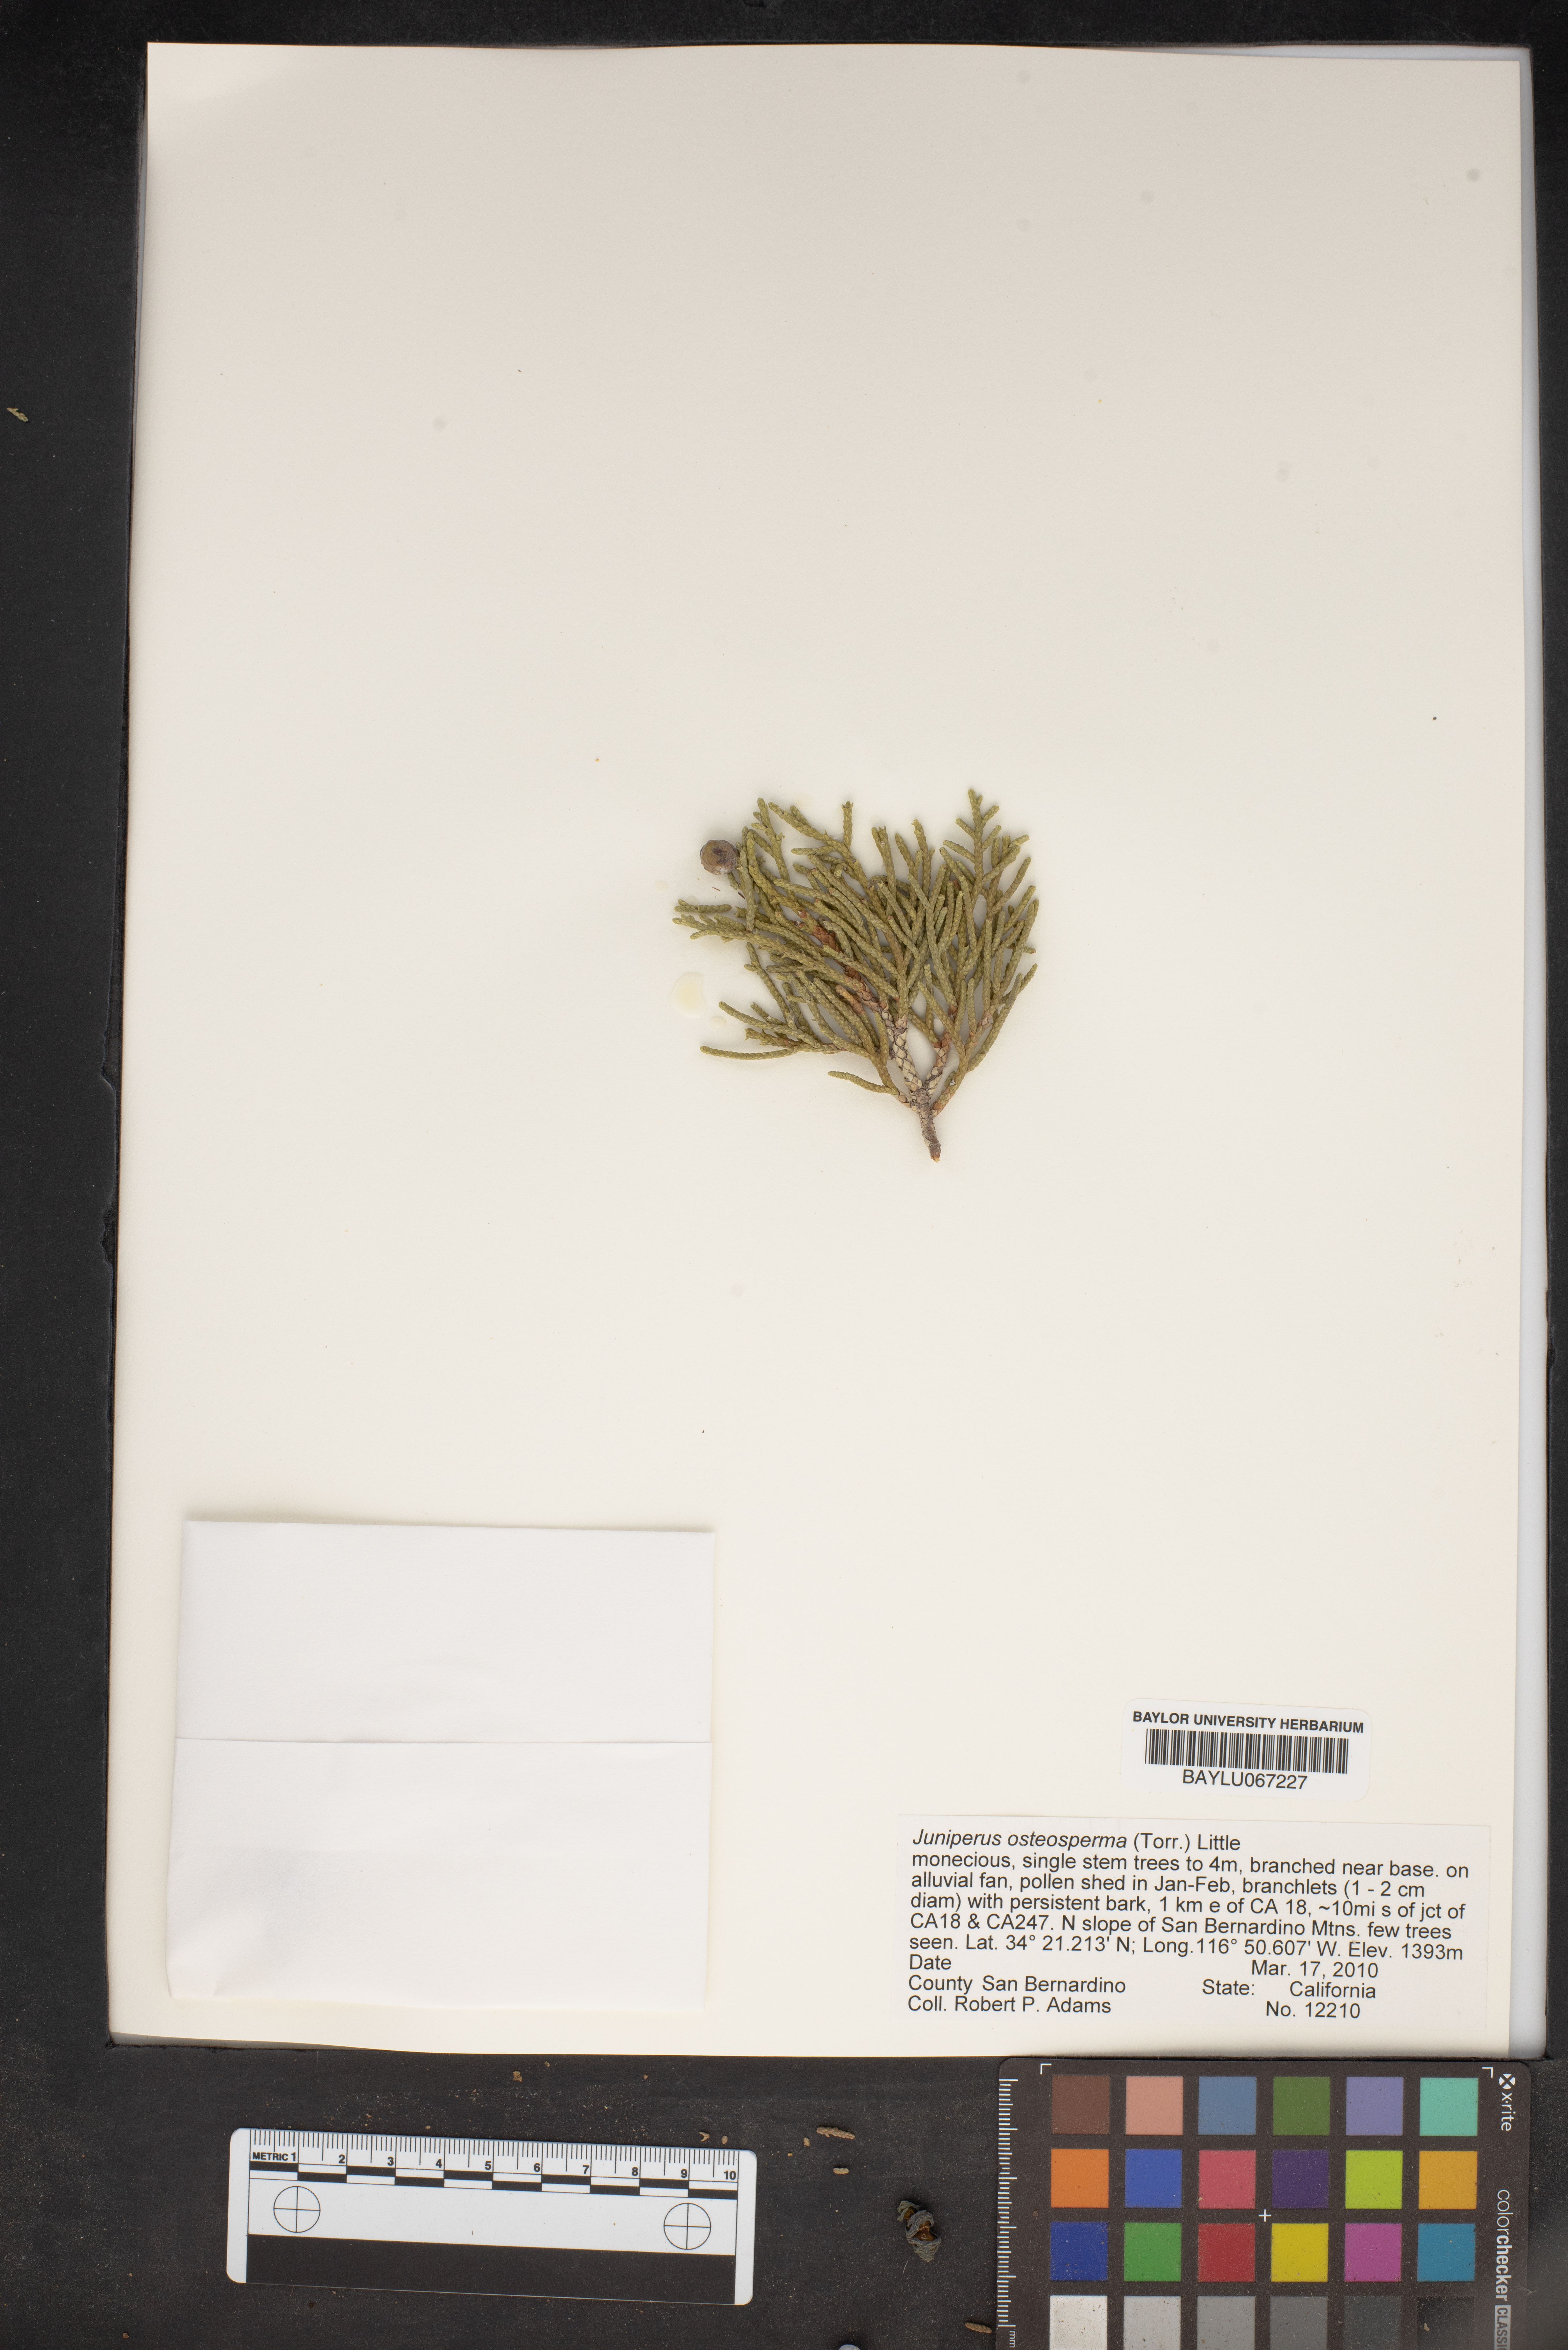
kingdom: Plantae
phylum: Tracheophyta
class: Pinopsida
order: Pinales
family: Cupressaceae
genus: Juniperus
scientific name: Juniperus osteosperma
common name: Utah juniper
